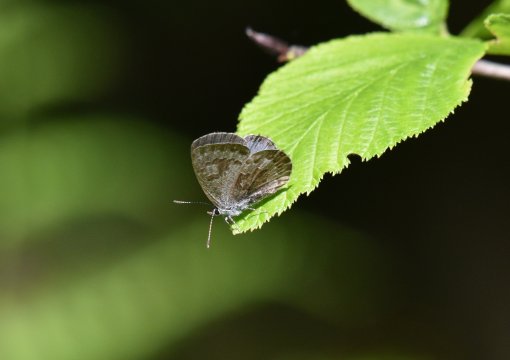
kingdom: Animalia
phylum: Arthropoda
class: Insecta
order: Lepidoptera
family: Lycaenidae
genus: Celastrina
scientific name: Celastrina lucia
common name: Northern Spring Azure
